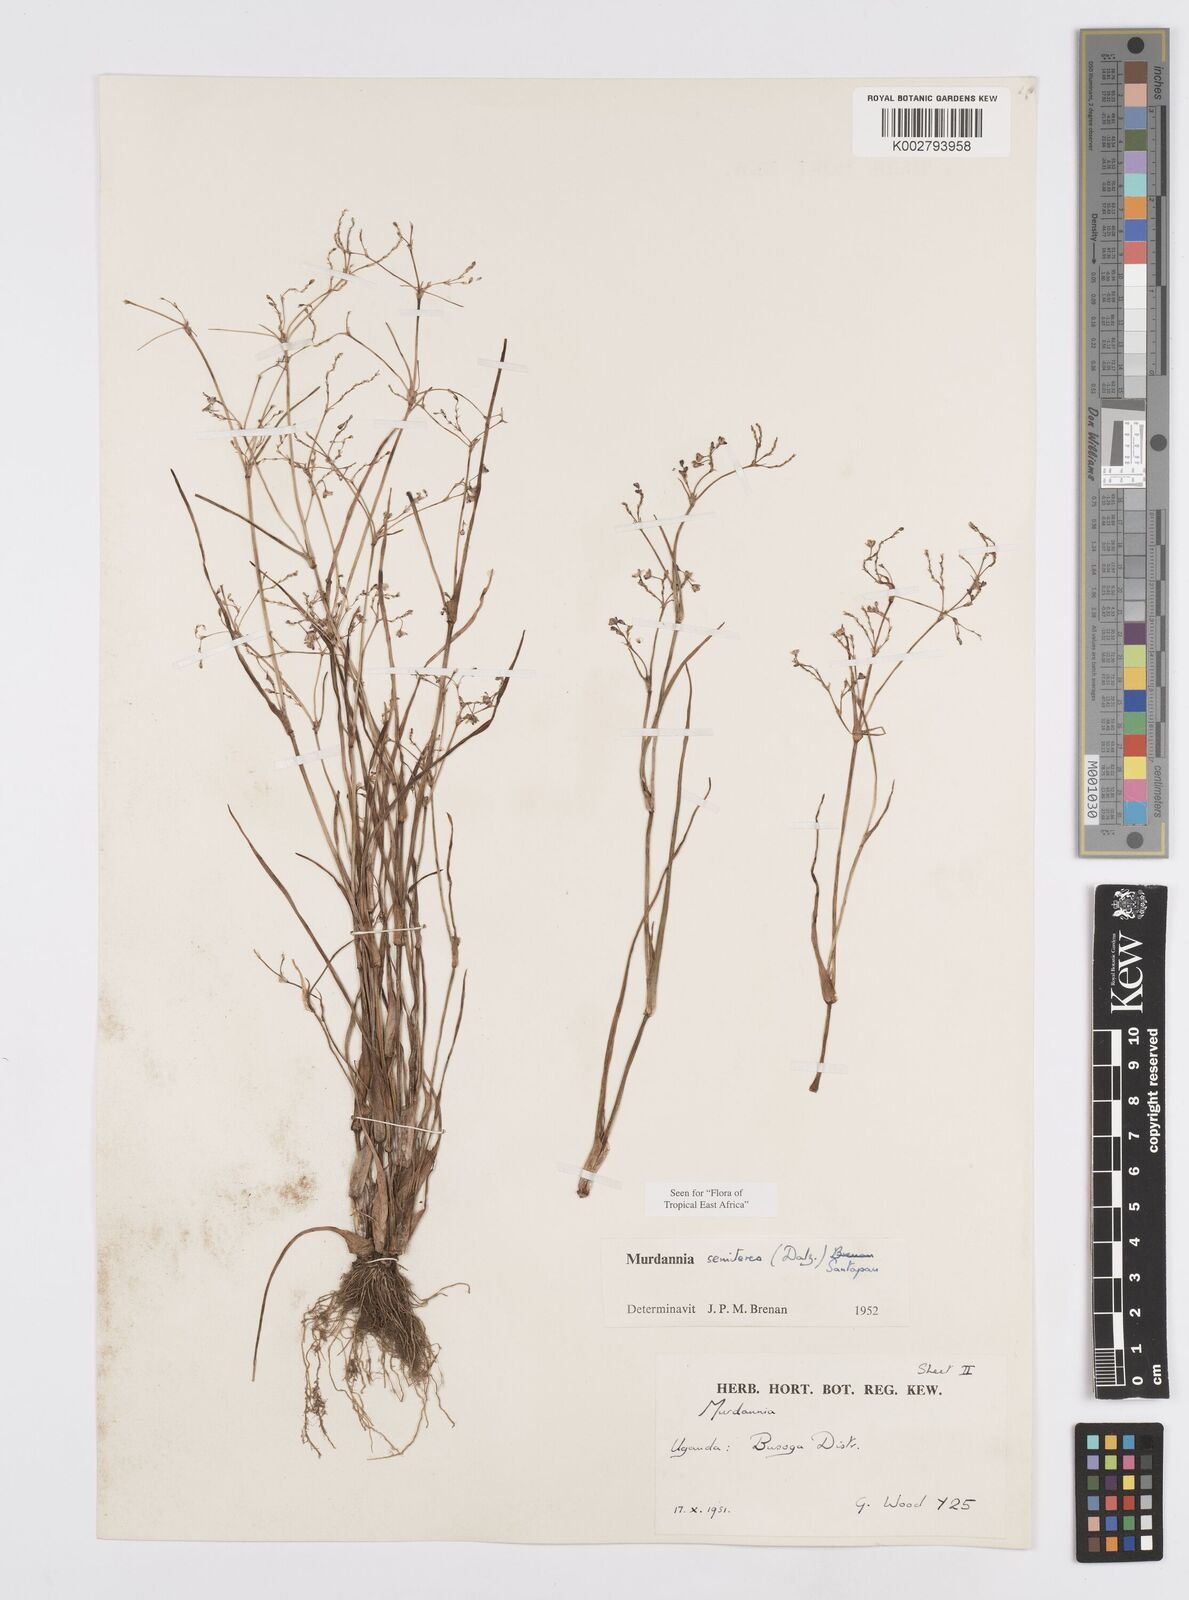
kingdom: Plantae
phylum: Tracheophyta
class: Liliopsida
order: Commelinales
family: Commelinaceae
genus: Murdannia
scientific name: Murdannia semiteres
